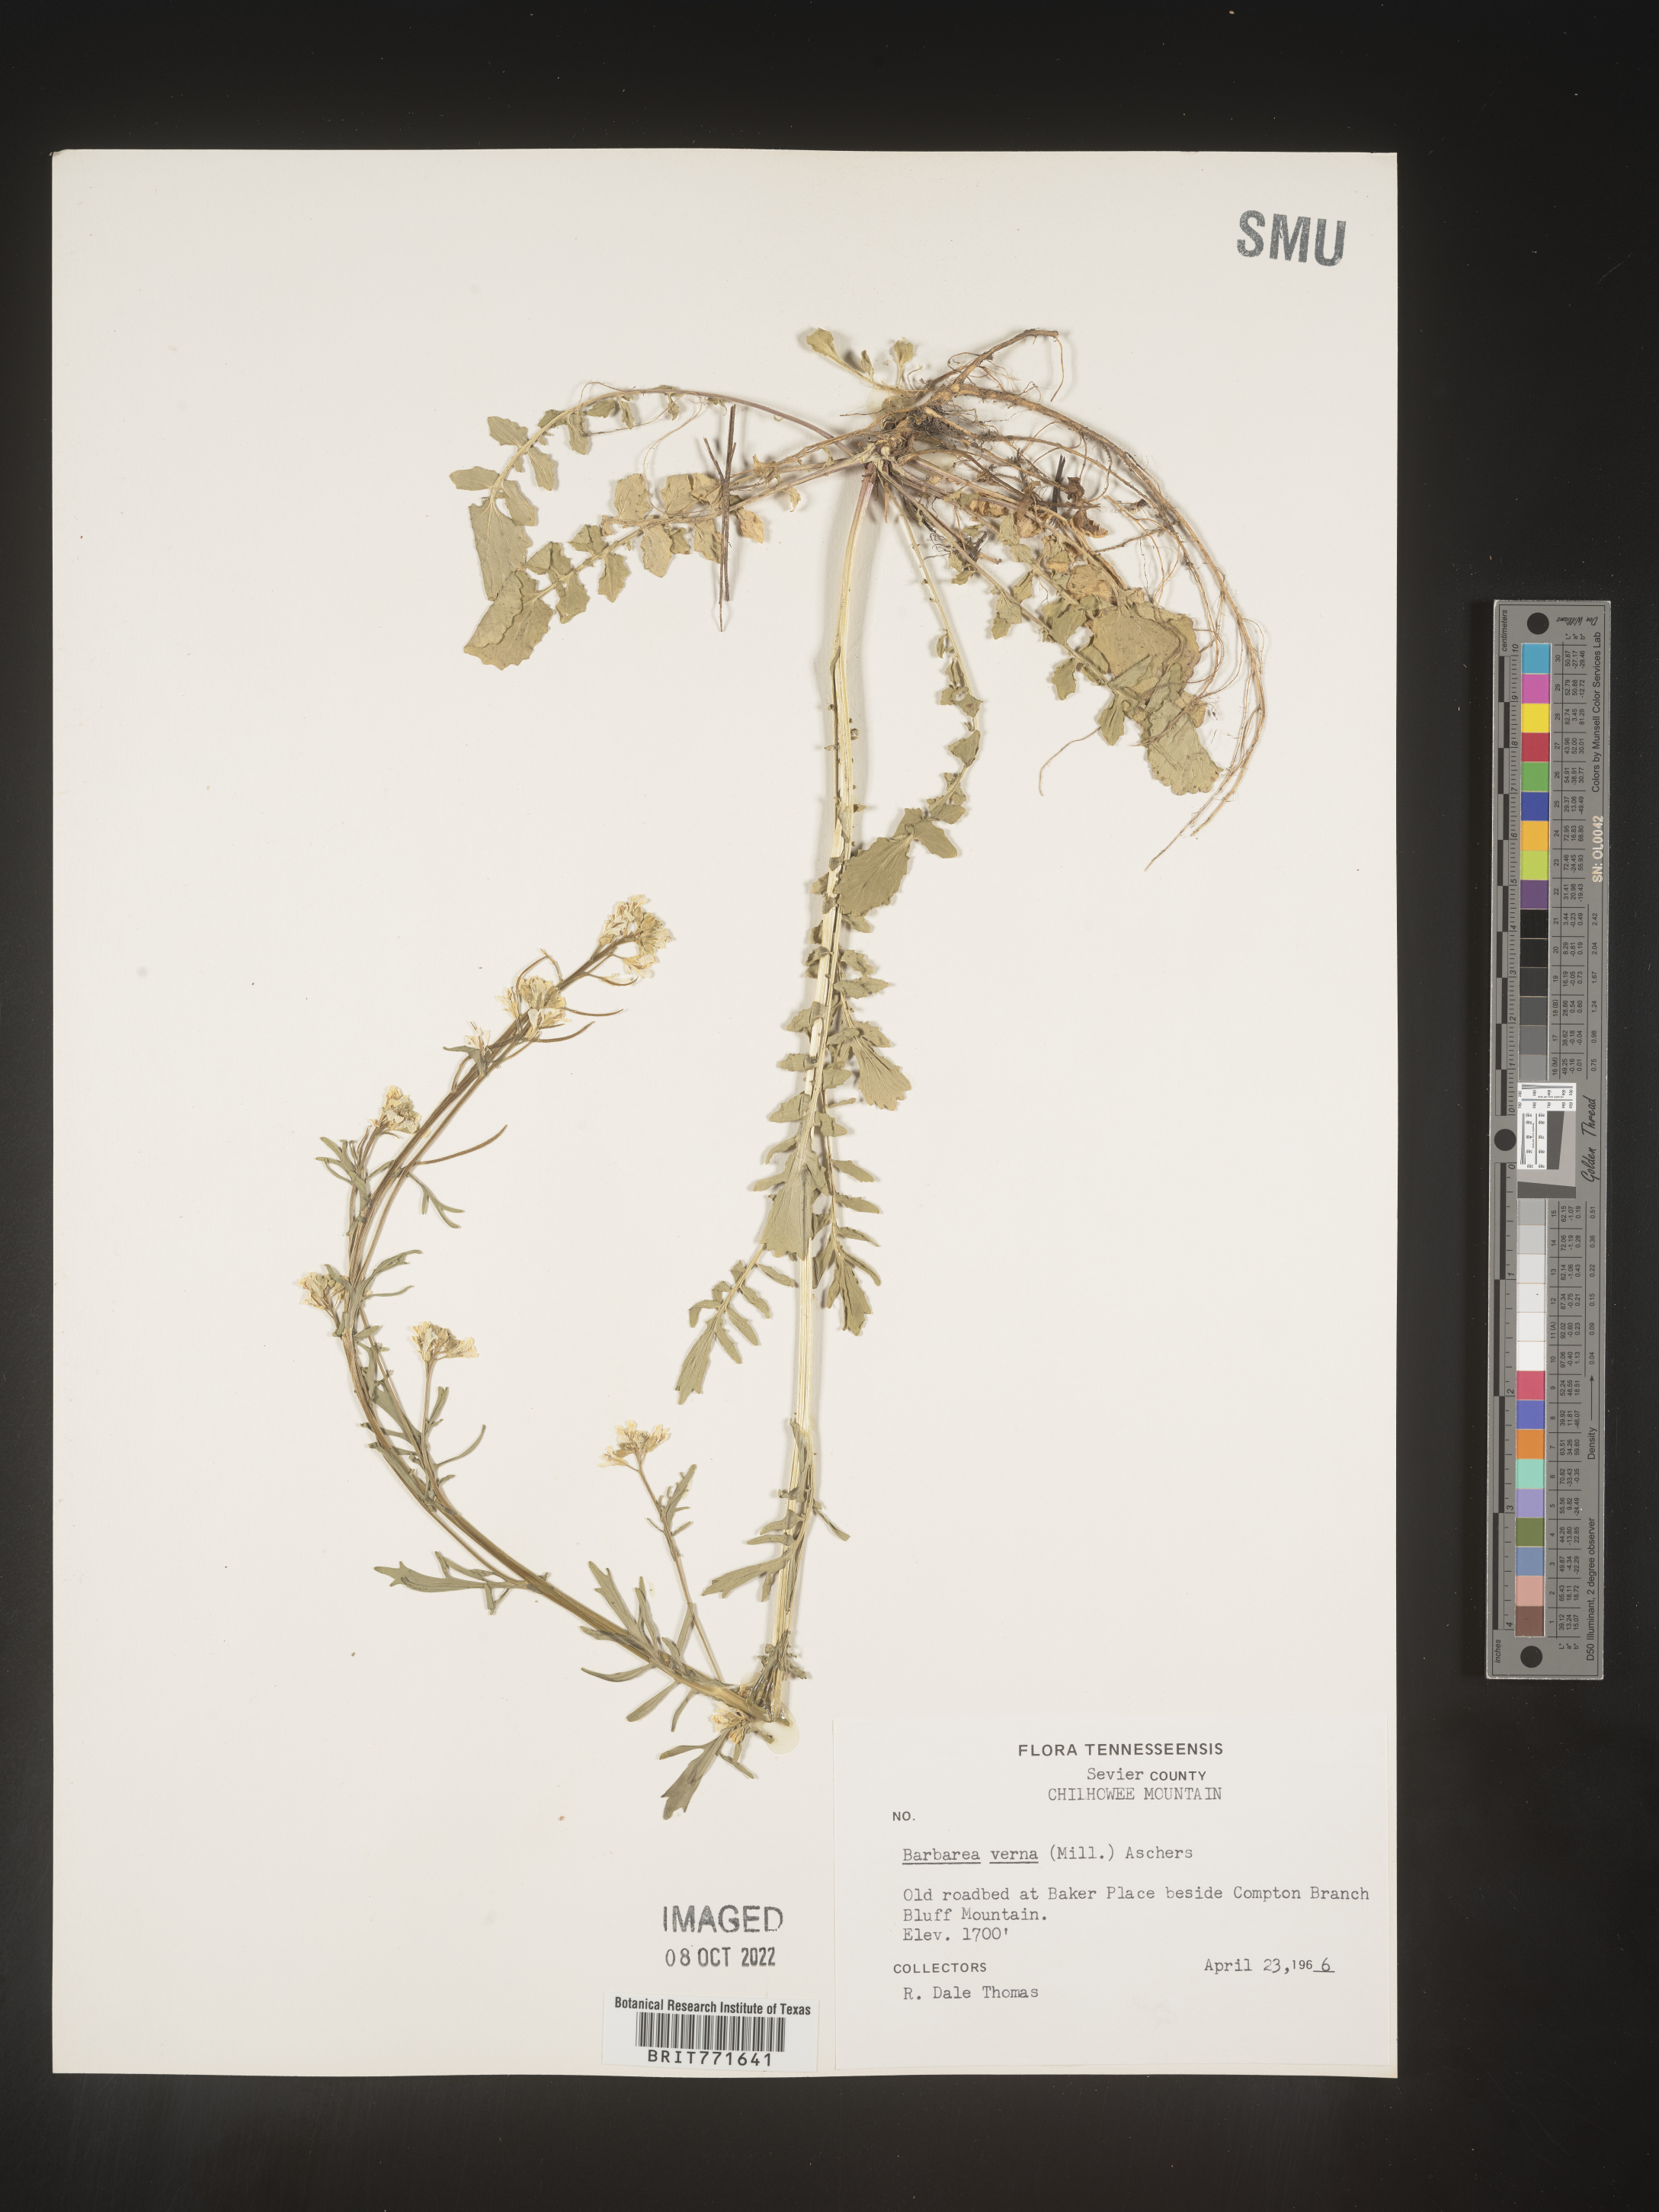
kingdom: Plantae
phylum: Tracheophyta
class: Magnoliopsida
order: Brassicales
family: Brassicaceae
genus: Barbarea
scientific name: Barbarea verna
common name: American cress
